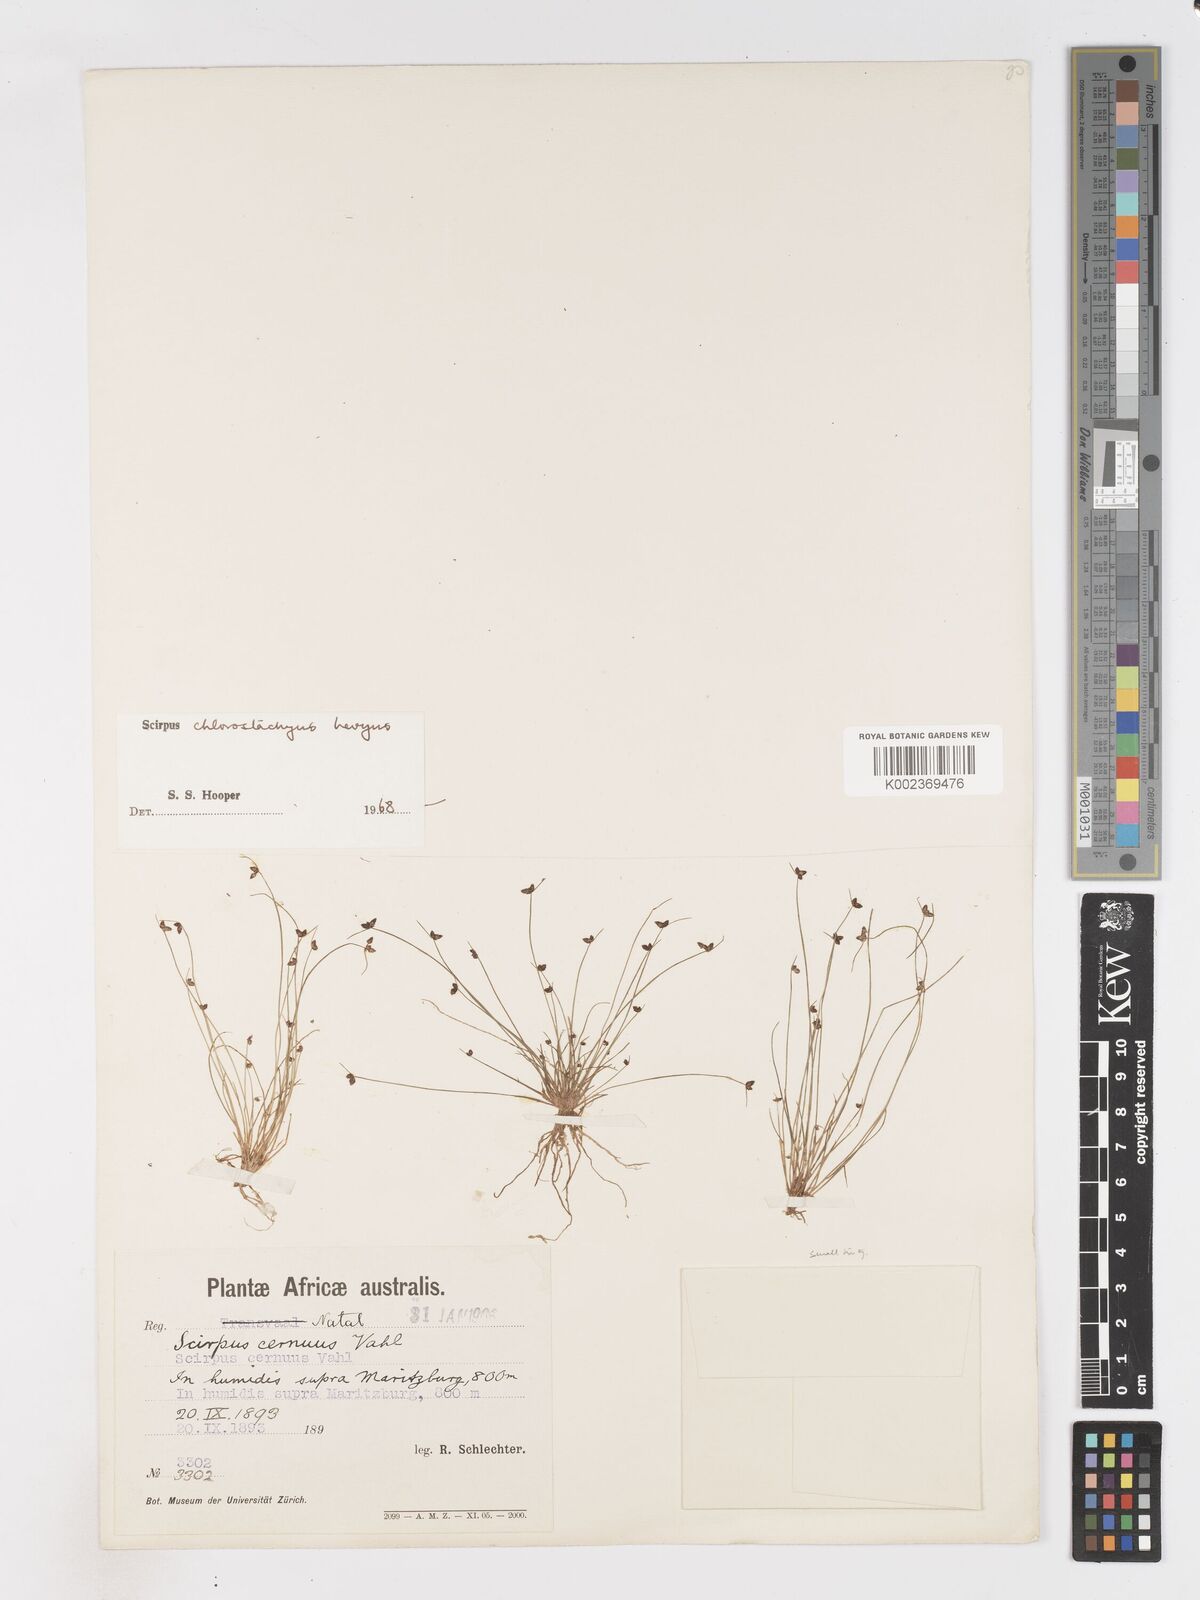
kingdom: Plantae
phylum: Tracheophyta
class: Liliopsida
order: Poales
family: Cyperaceae
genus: Isolepis
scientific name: Isolepis sepulcralis
